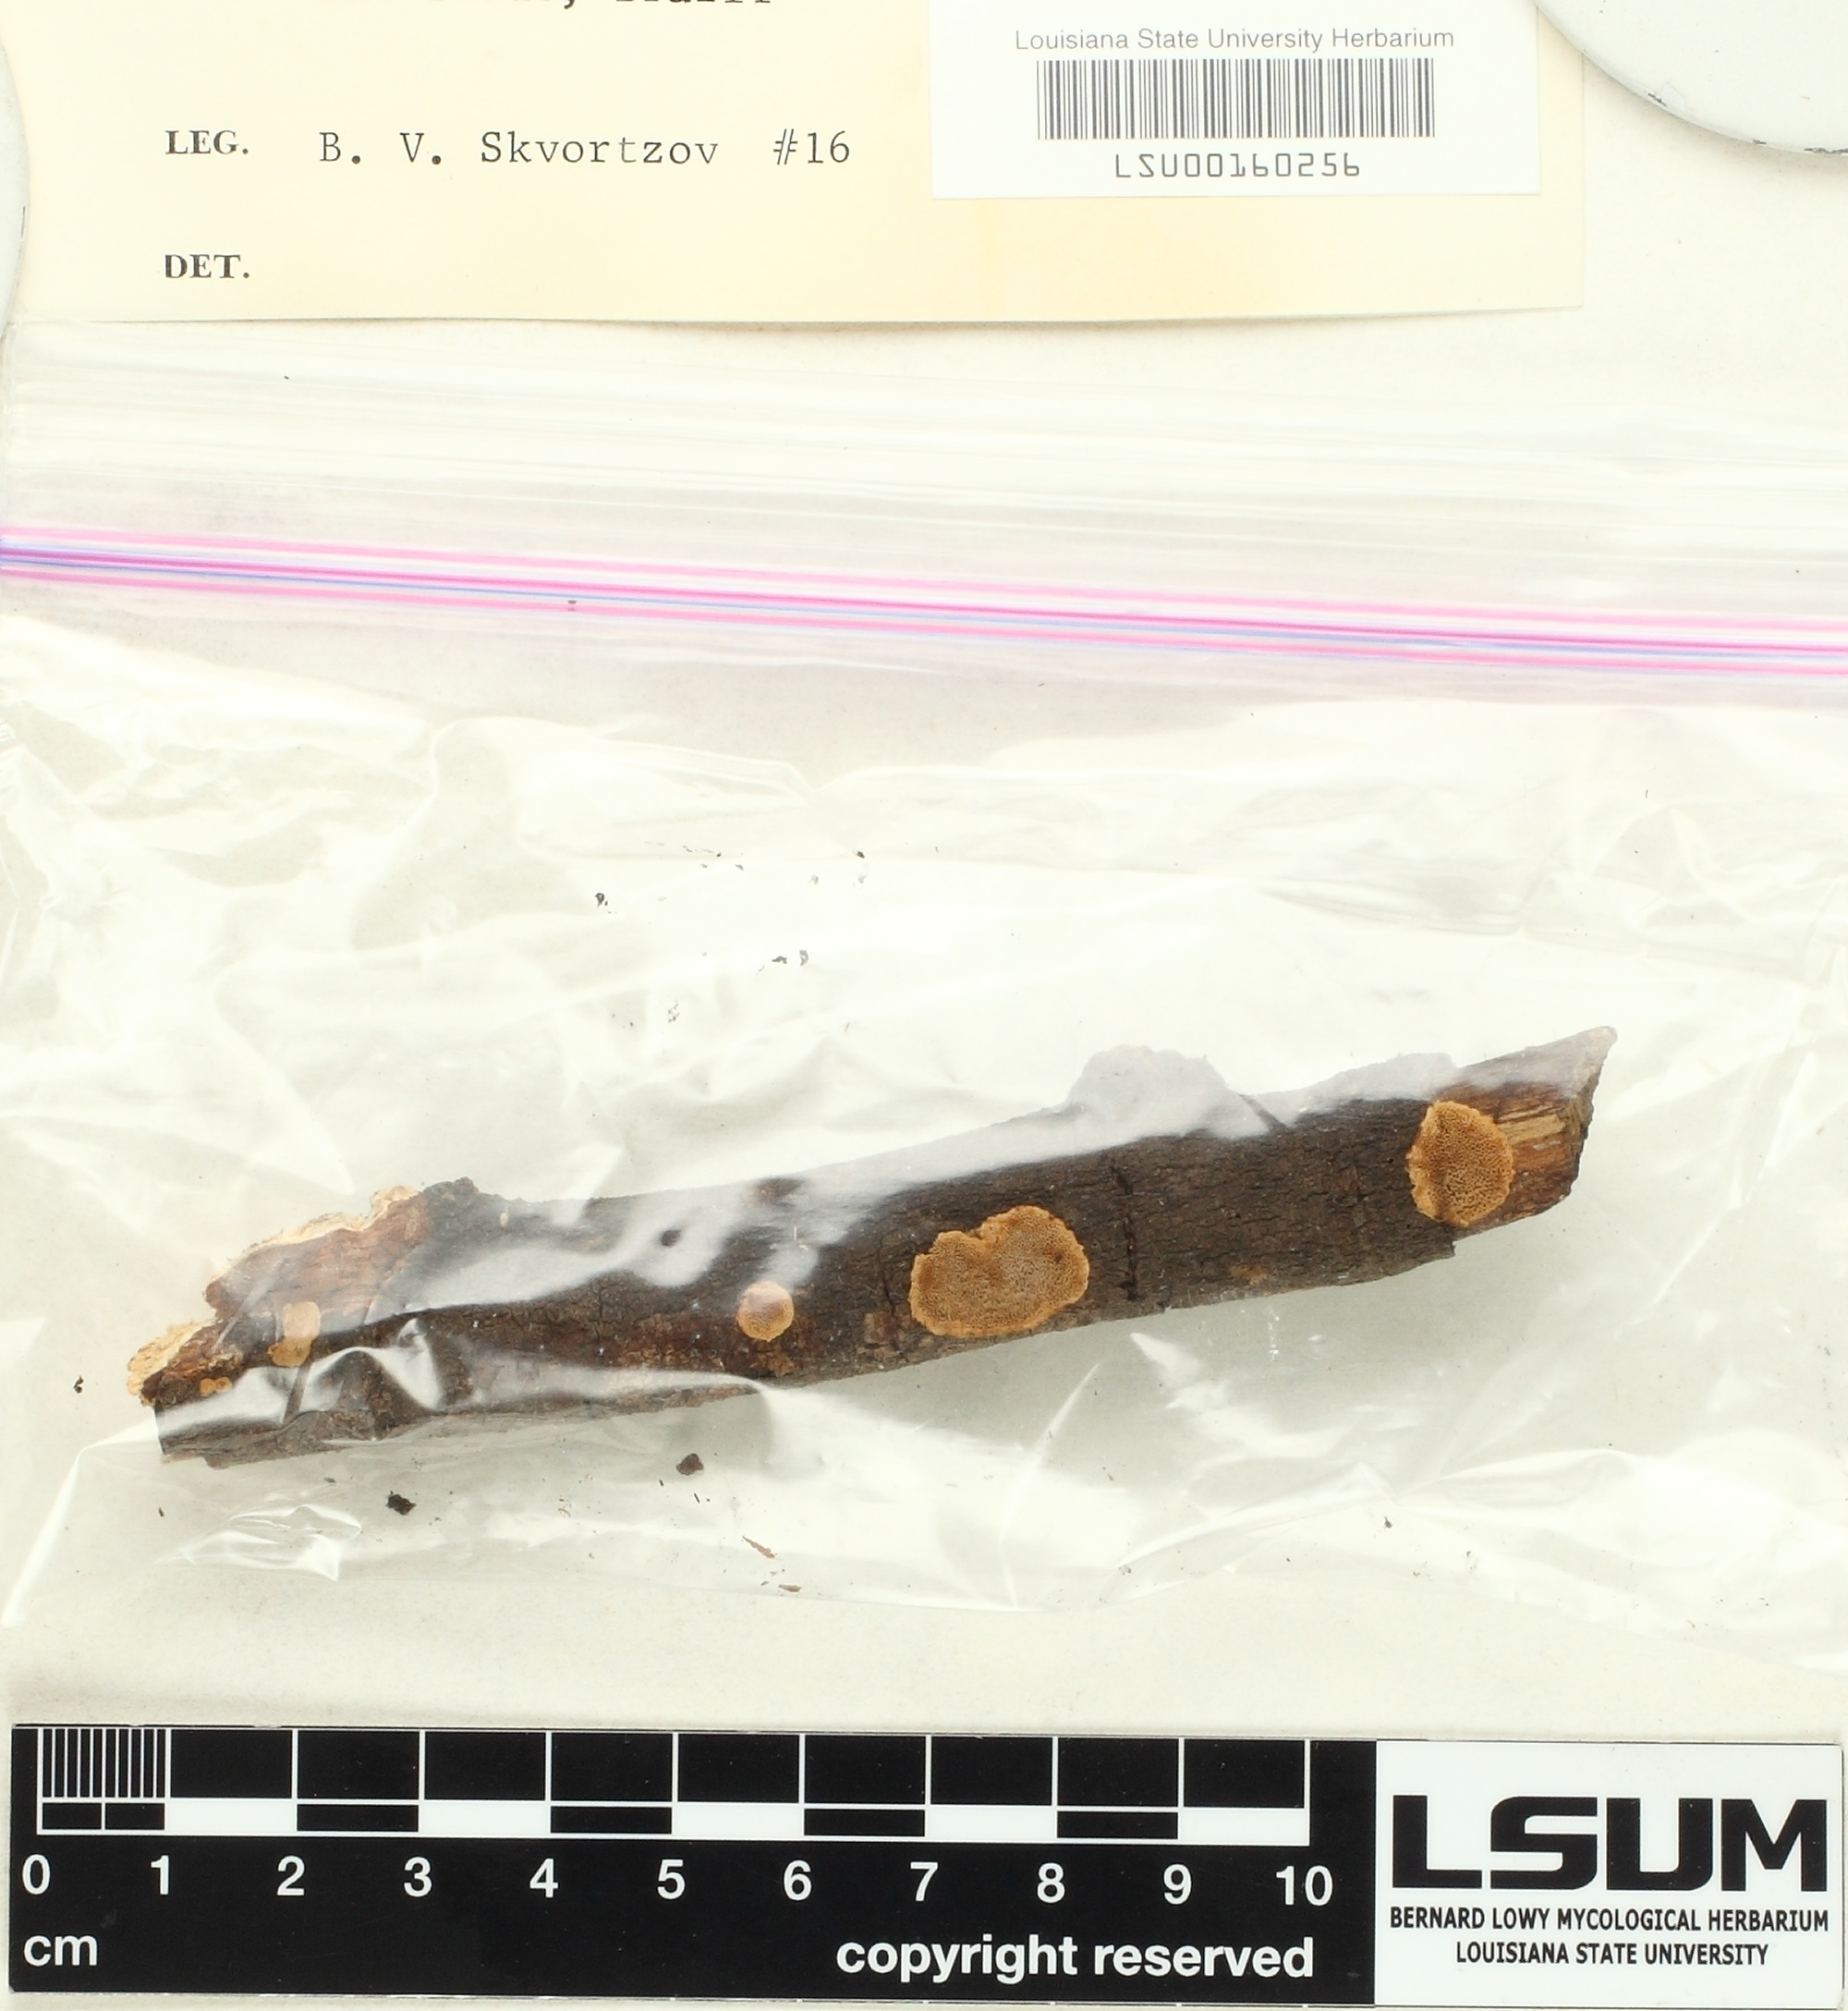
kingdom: Fungi
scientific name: Fungi
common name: Fungi
